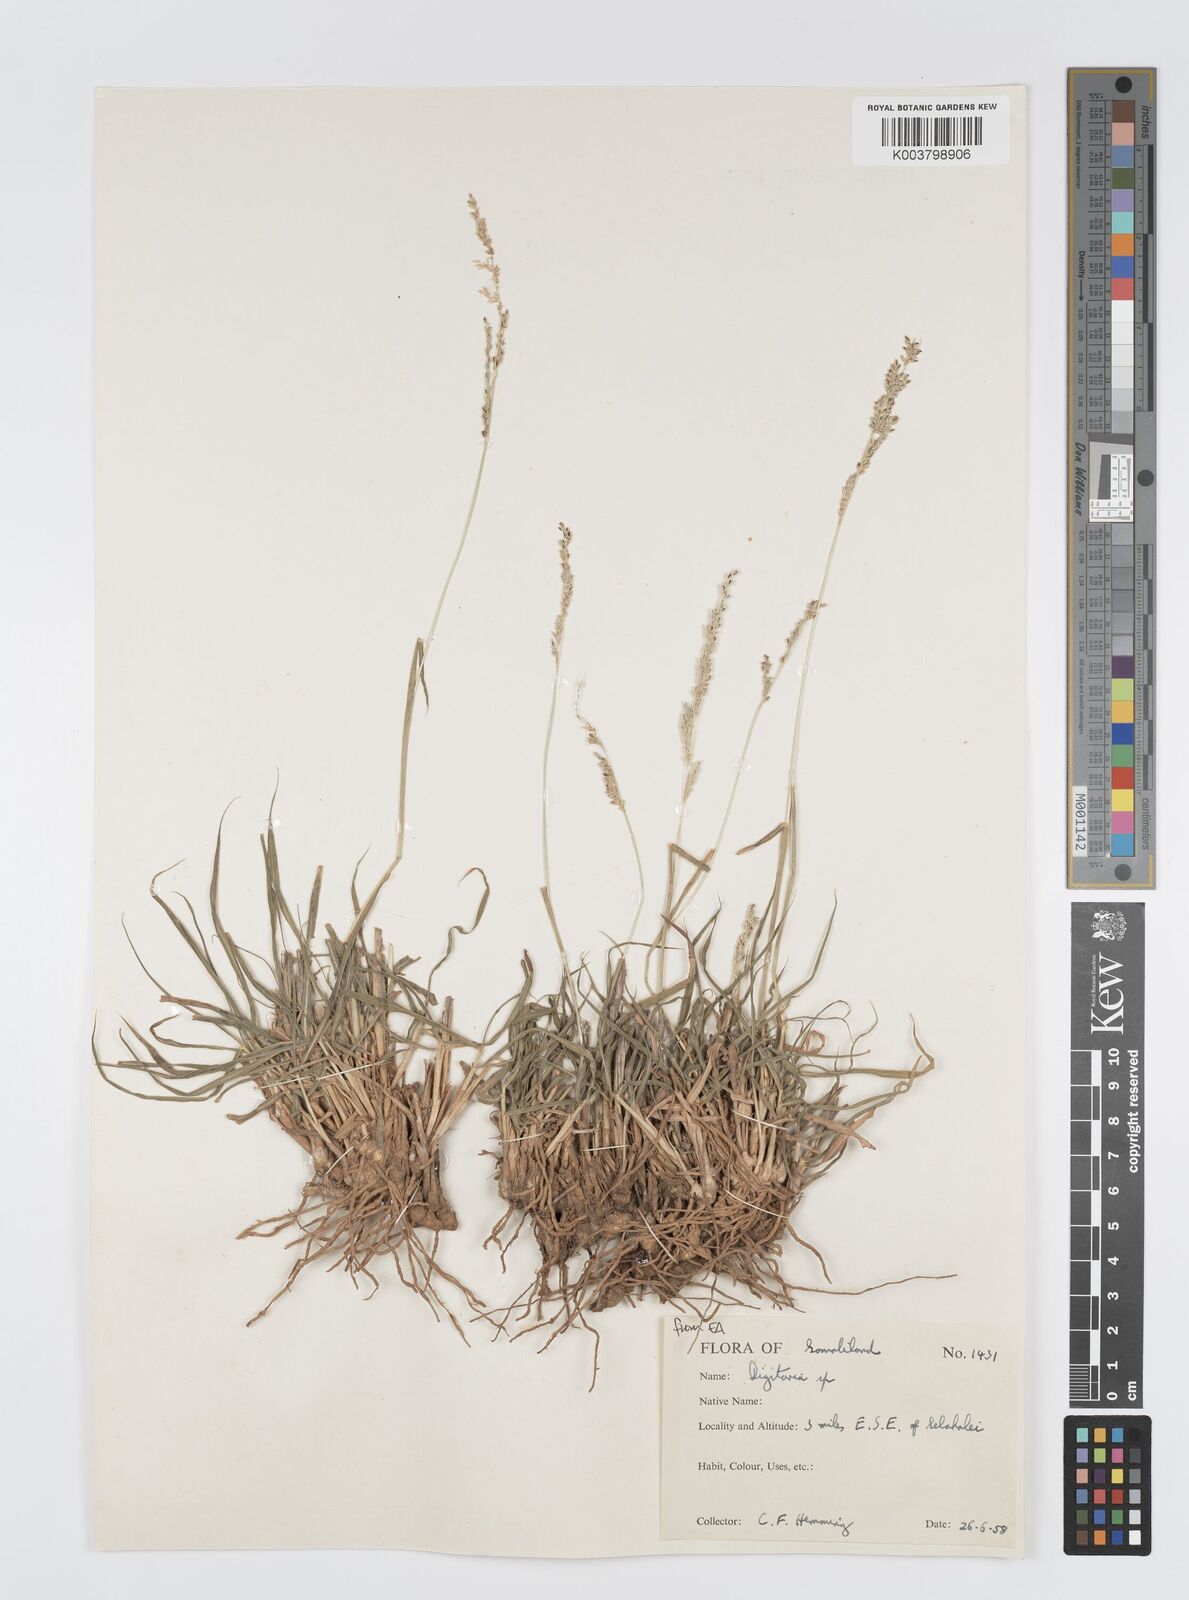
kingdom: Plantae
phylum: Tracheophyta
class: Liliopsida
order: Poales
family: Poaceae
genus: Digitaria
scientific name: Digitaria rivae
